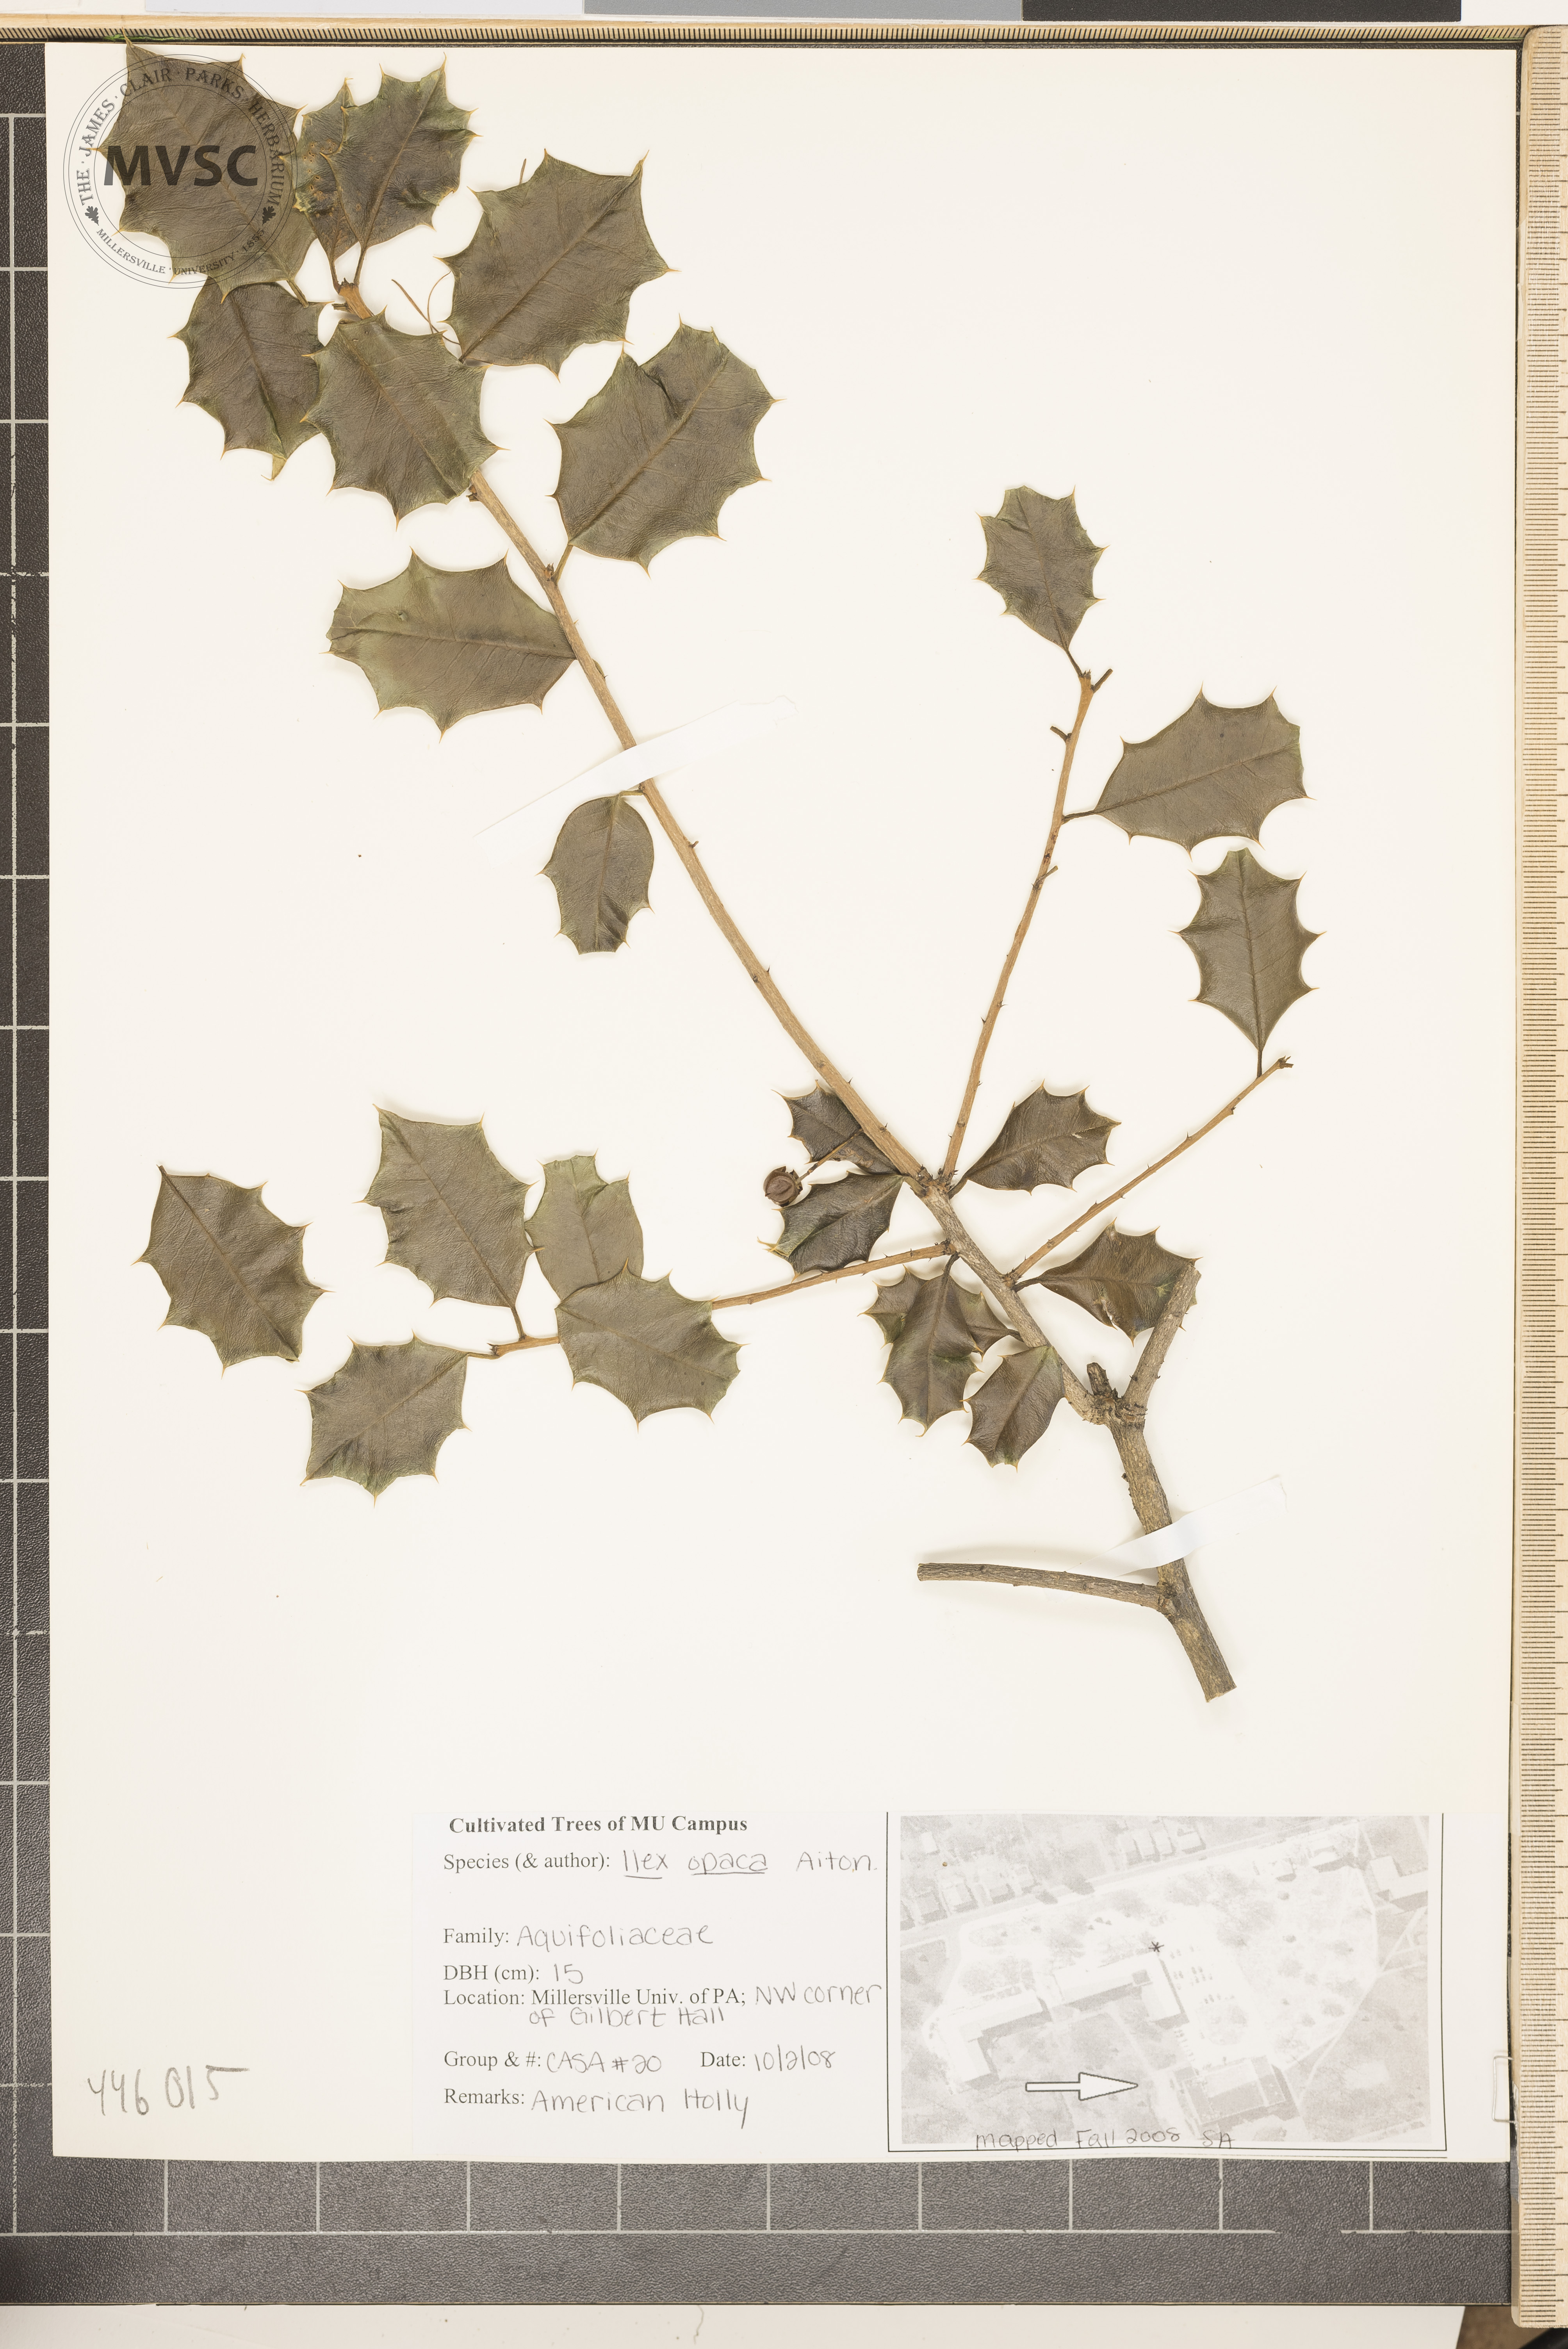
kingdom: Plantae
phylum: Tracheophyta
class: Magnoliopsida
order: Aquifoliales
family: Aquifoliaceae
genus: Ilex
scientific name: Ilex opaca
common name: American holly
